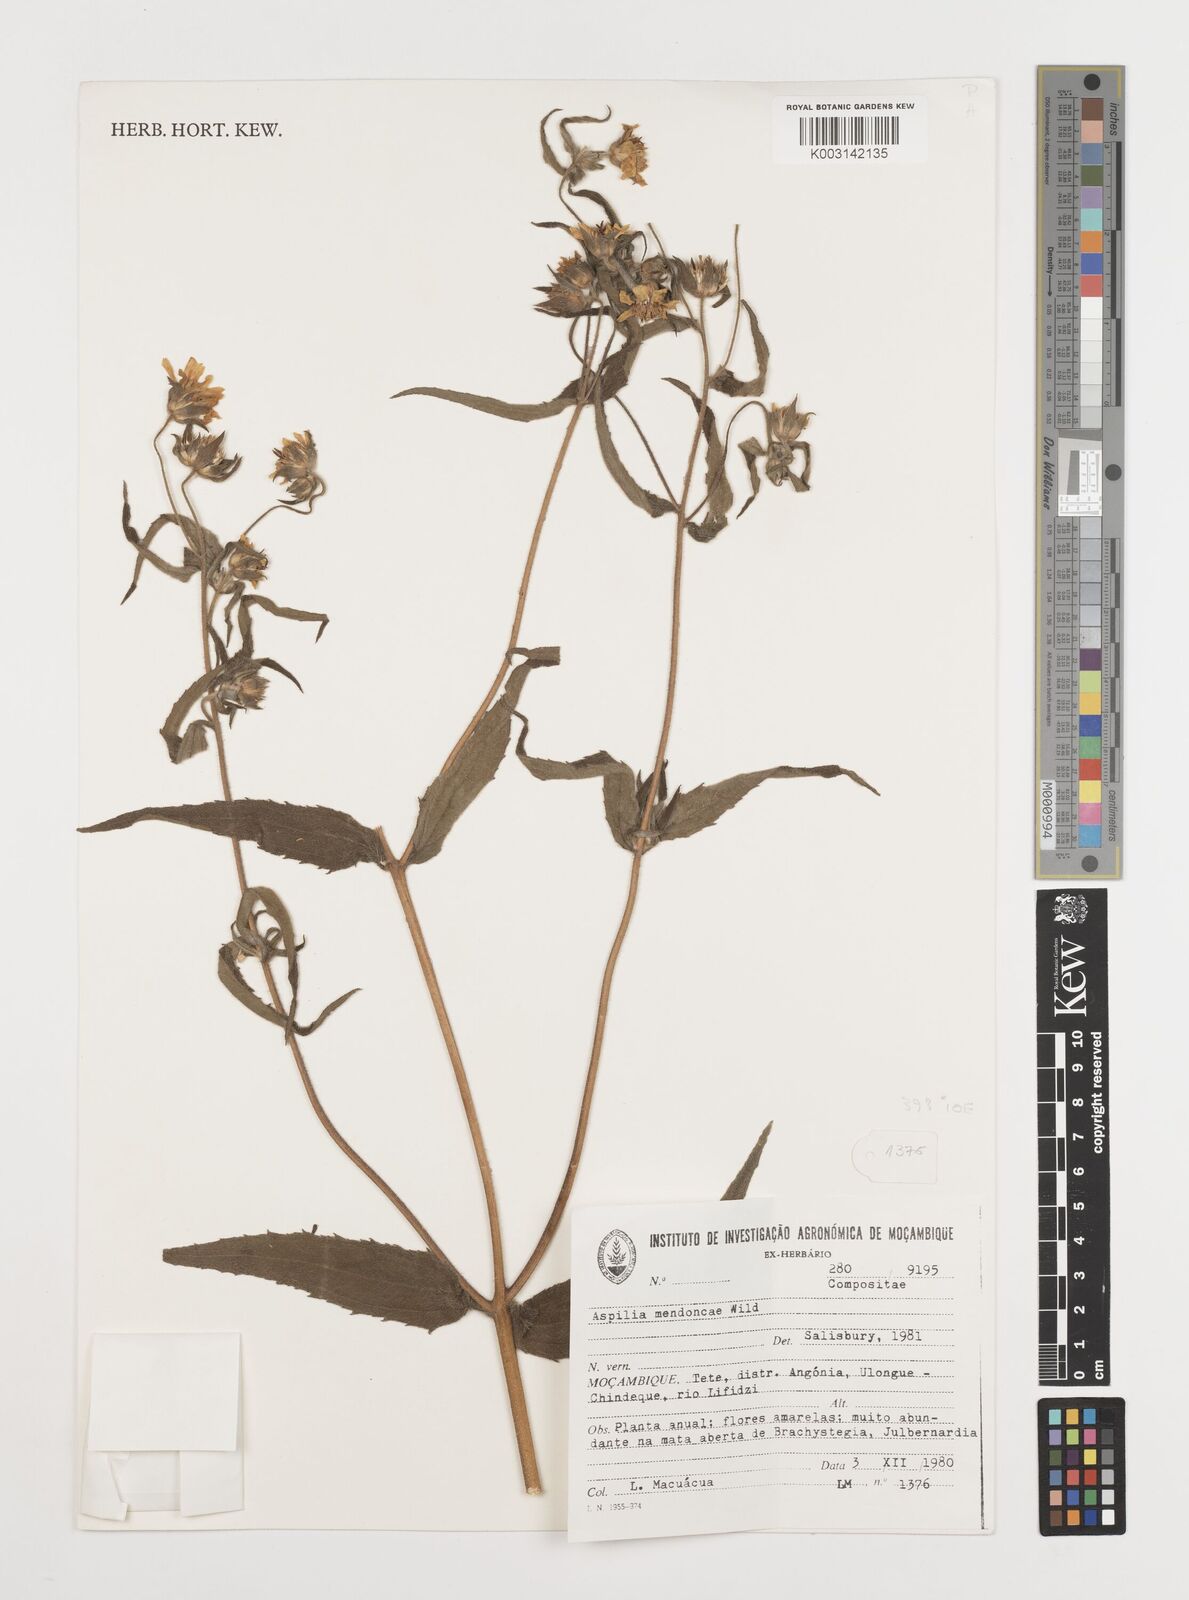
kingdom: Plantae
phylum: Tracheophyta
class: Magnoliopsida
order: Asterales
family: Asteraceae
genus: Aspilia
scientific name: Aspilia mendoncae
